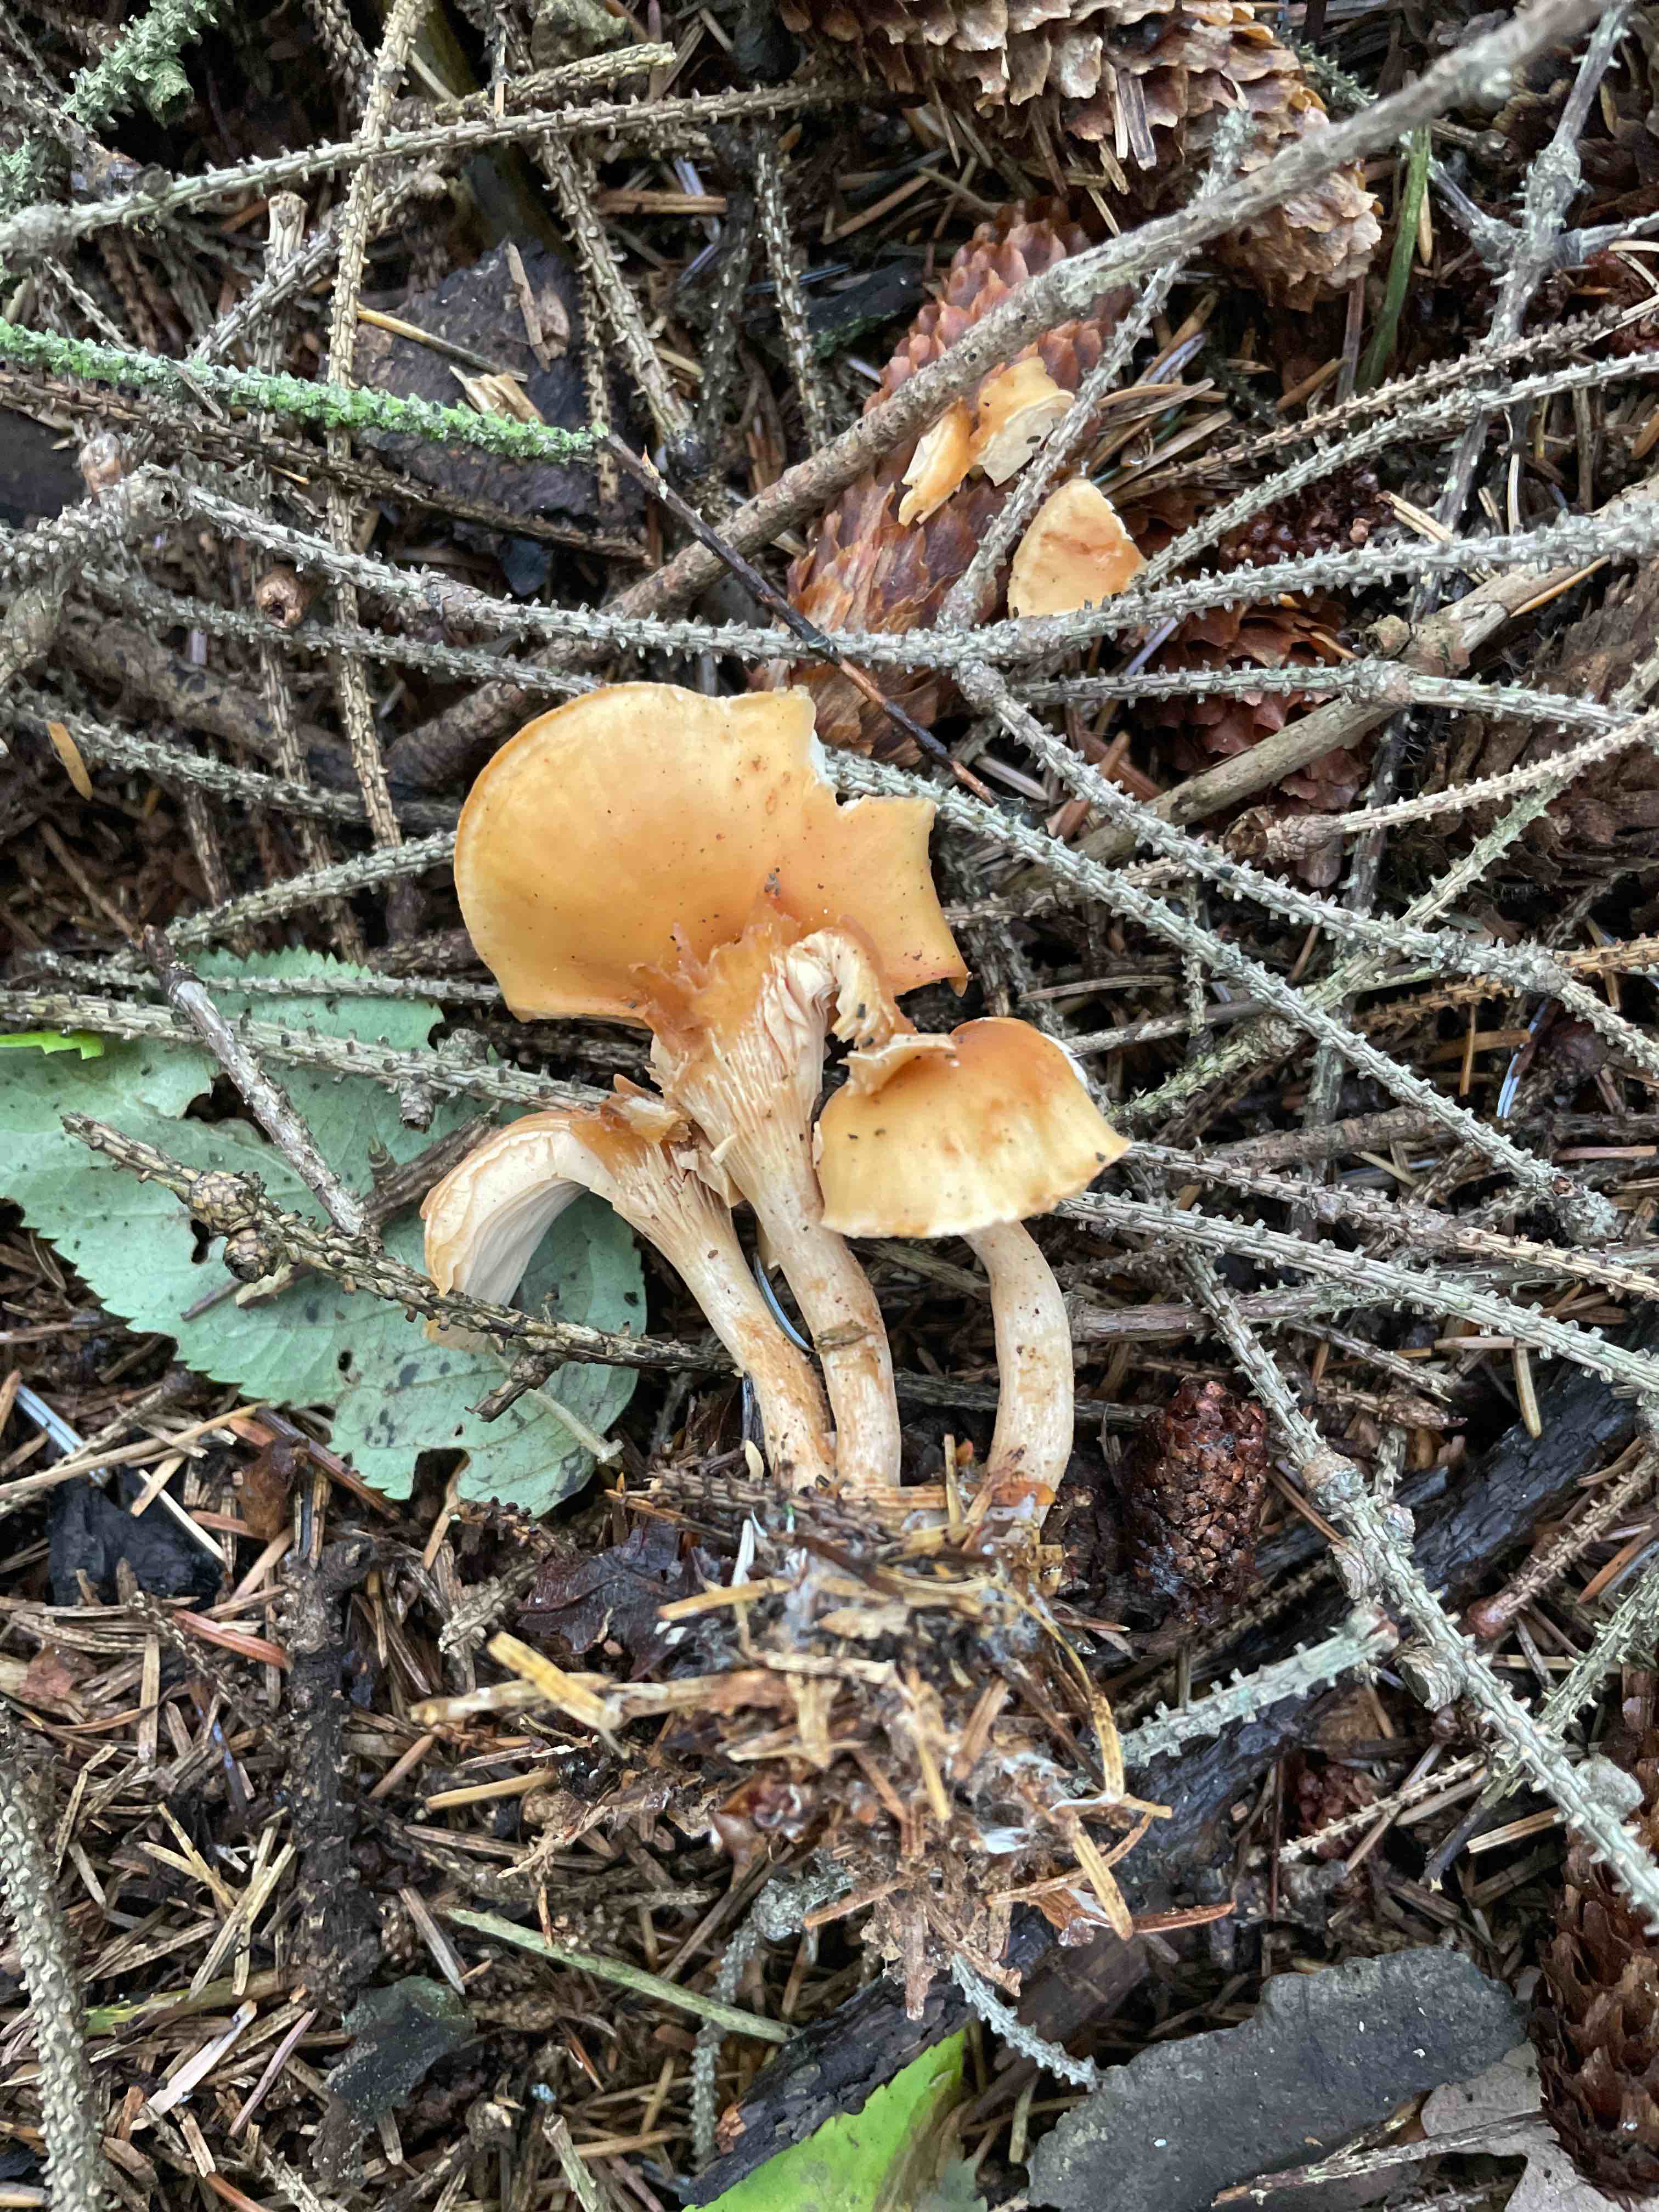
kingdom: Fungi
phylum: Basidiomycota
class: Agaricomycetes
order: Agaricales
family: Tricholomataceae
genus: Paralepista
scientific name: Paralepista flaccida
